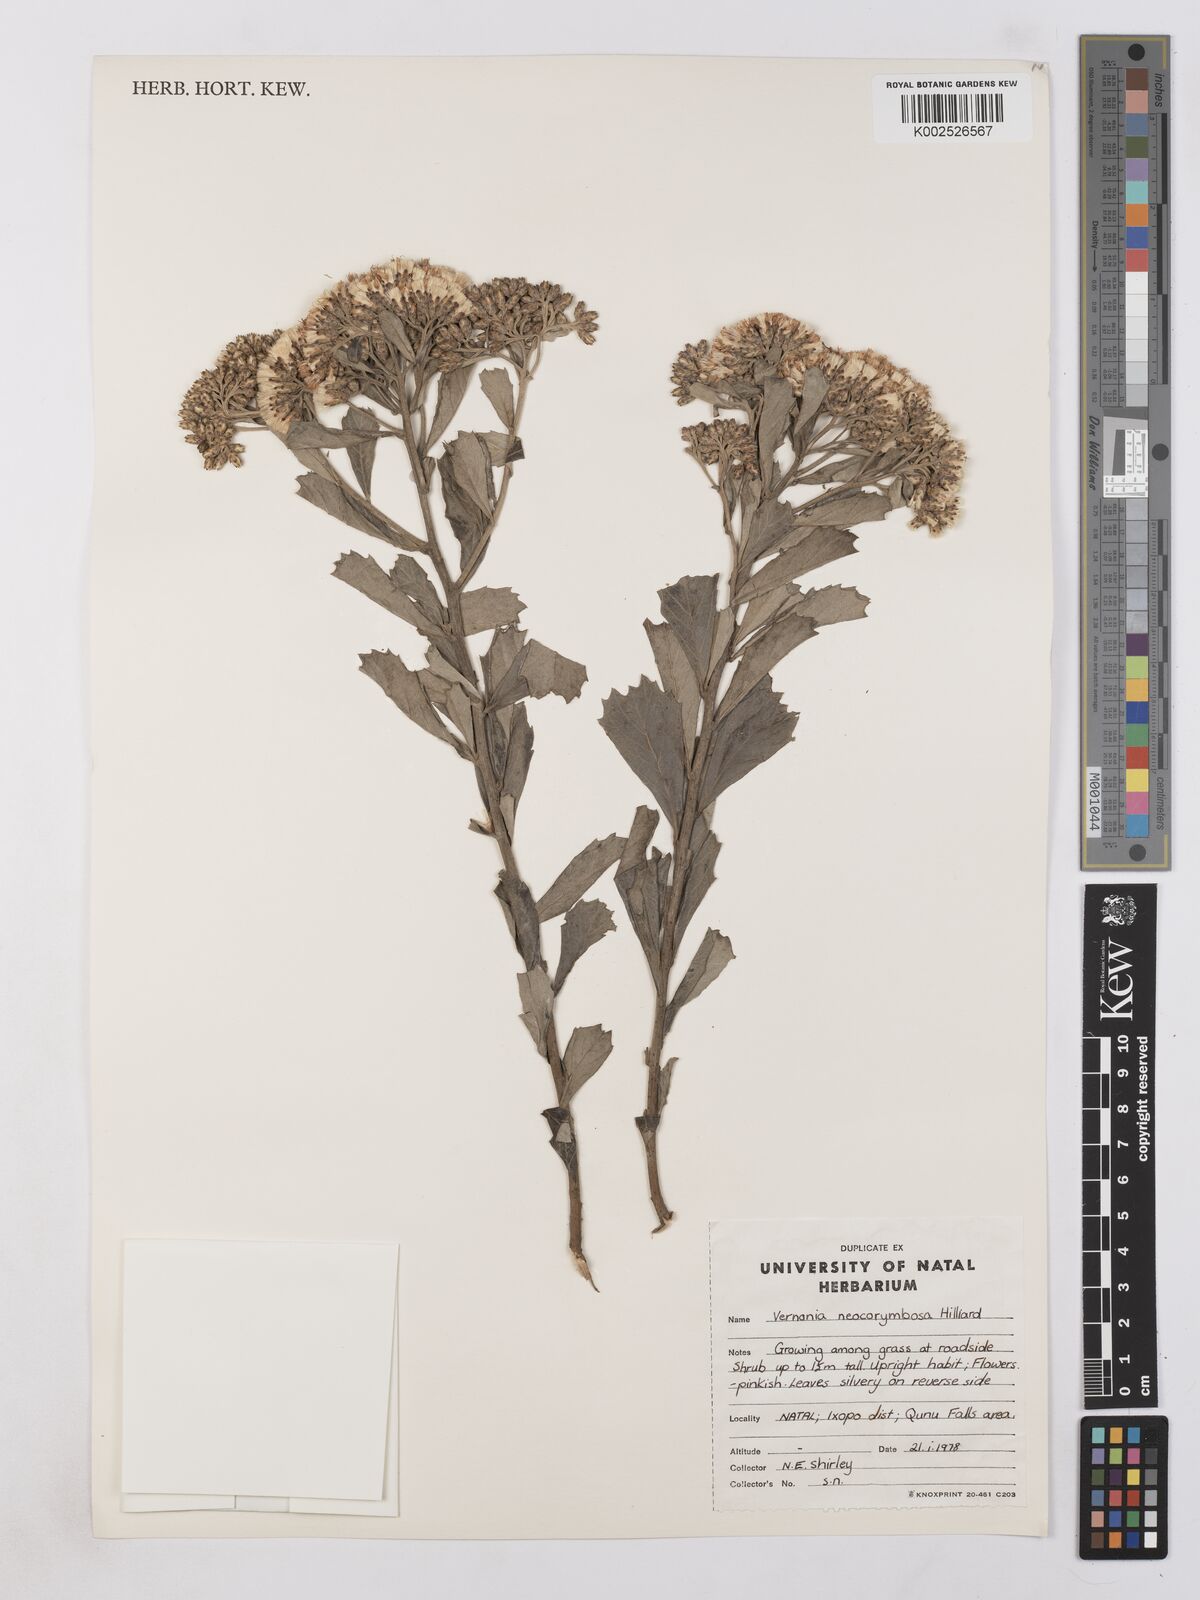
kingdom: Plantae
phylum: Tracheophyta
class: Magnoliopsida
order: Asterales
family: Asteraceae
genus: Gymnanthemum
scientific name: Gymnanthemum corymbosum
